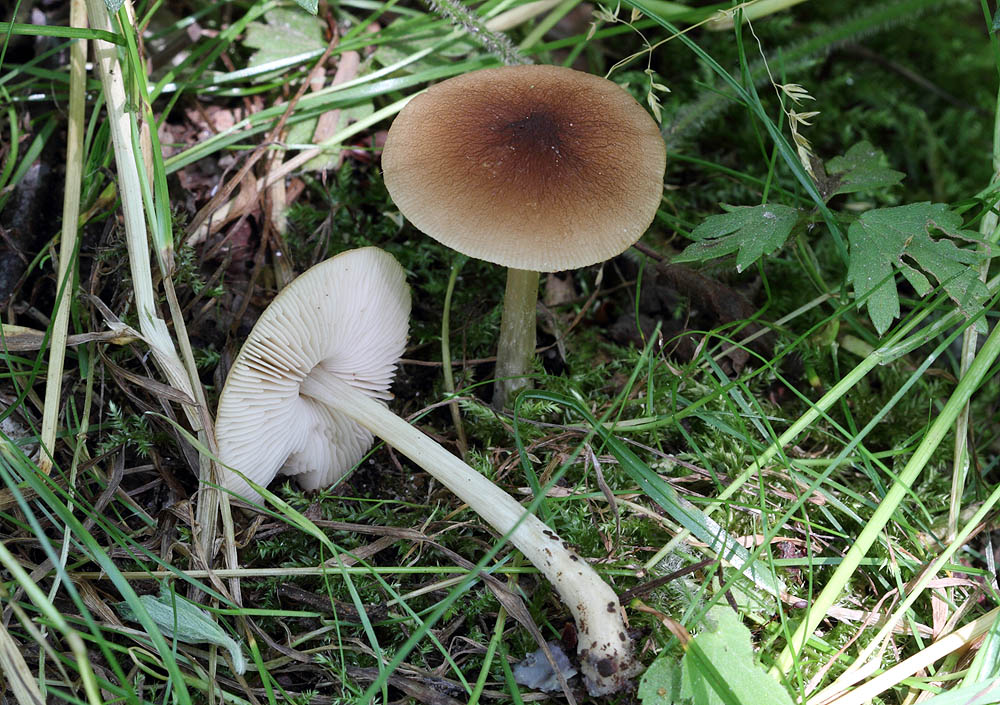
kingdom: Fungi
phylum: Basidiomycota
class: Agaricomycetes
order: Agaricales
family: Pluteaceae
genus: Pluteus
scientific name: Pluteus phlebophorus
